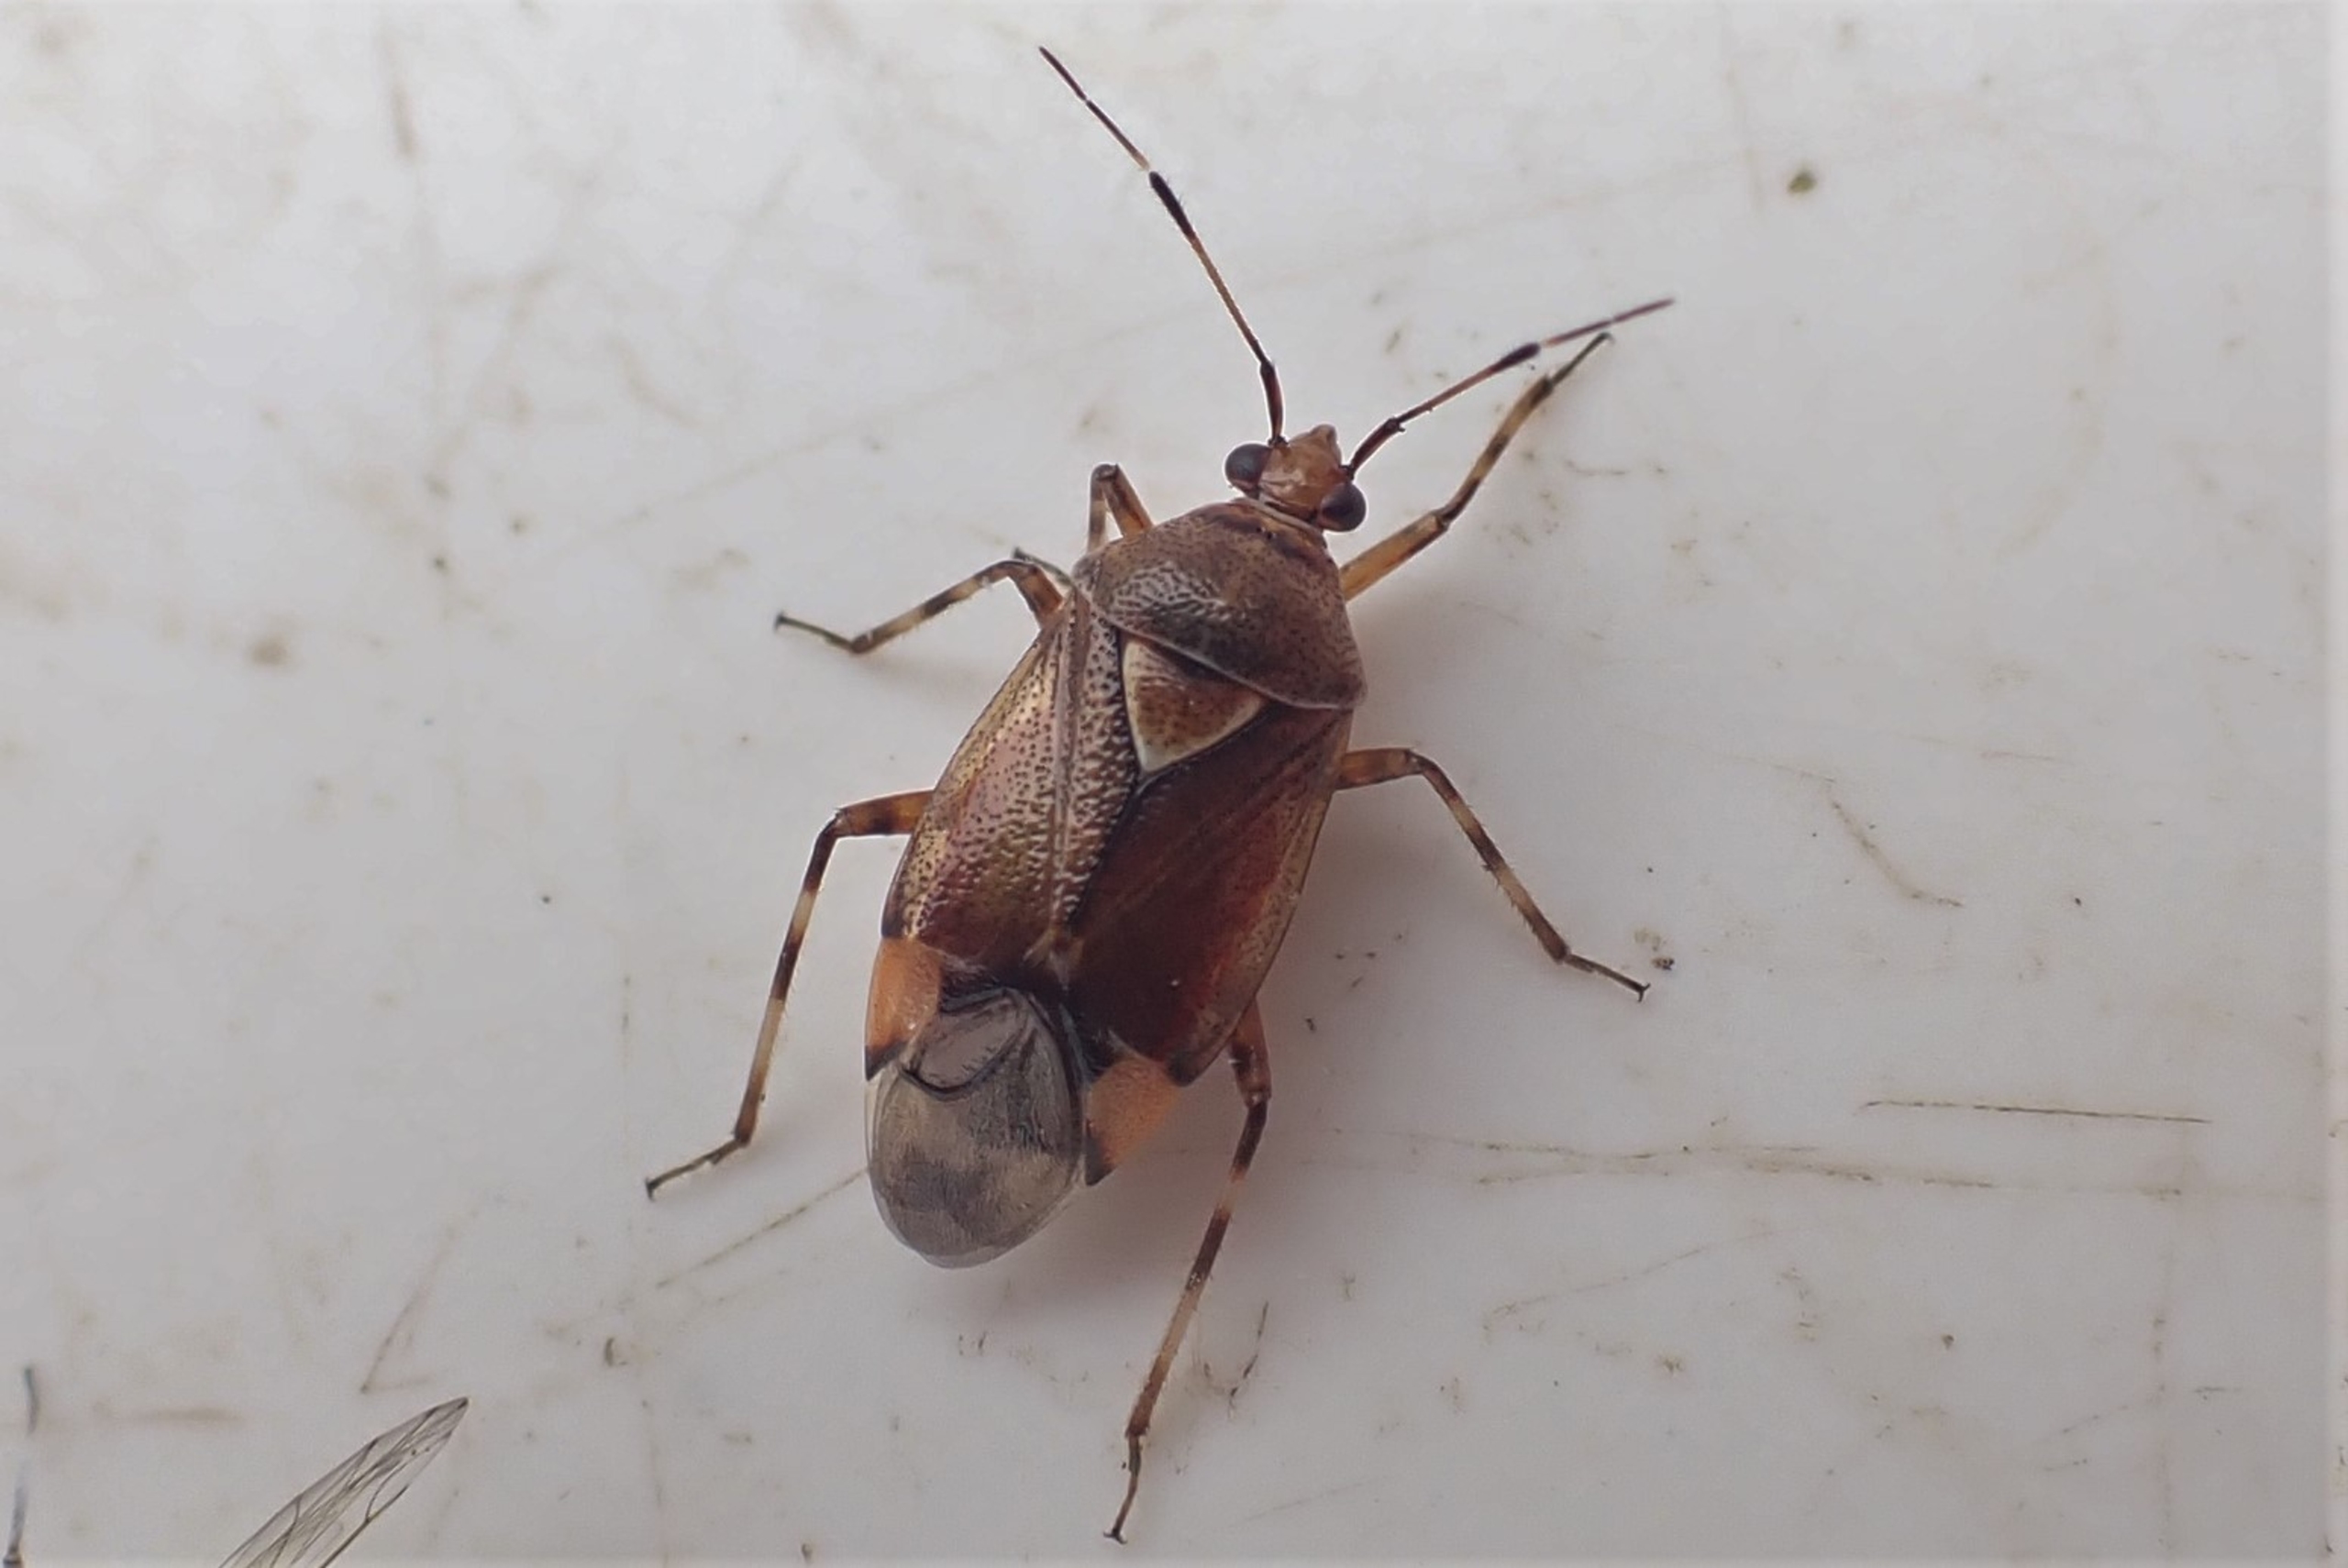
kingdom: Animalia
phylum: Arthropoda
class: Insecta
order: Hemiptera
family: Miridae
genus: Deraeocoris
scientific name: Deraeocoris flavilinea
